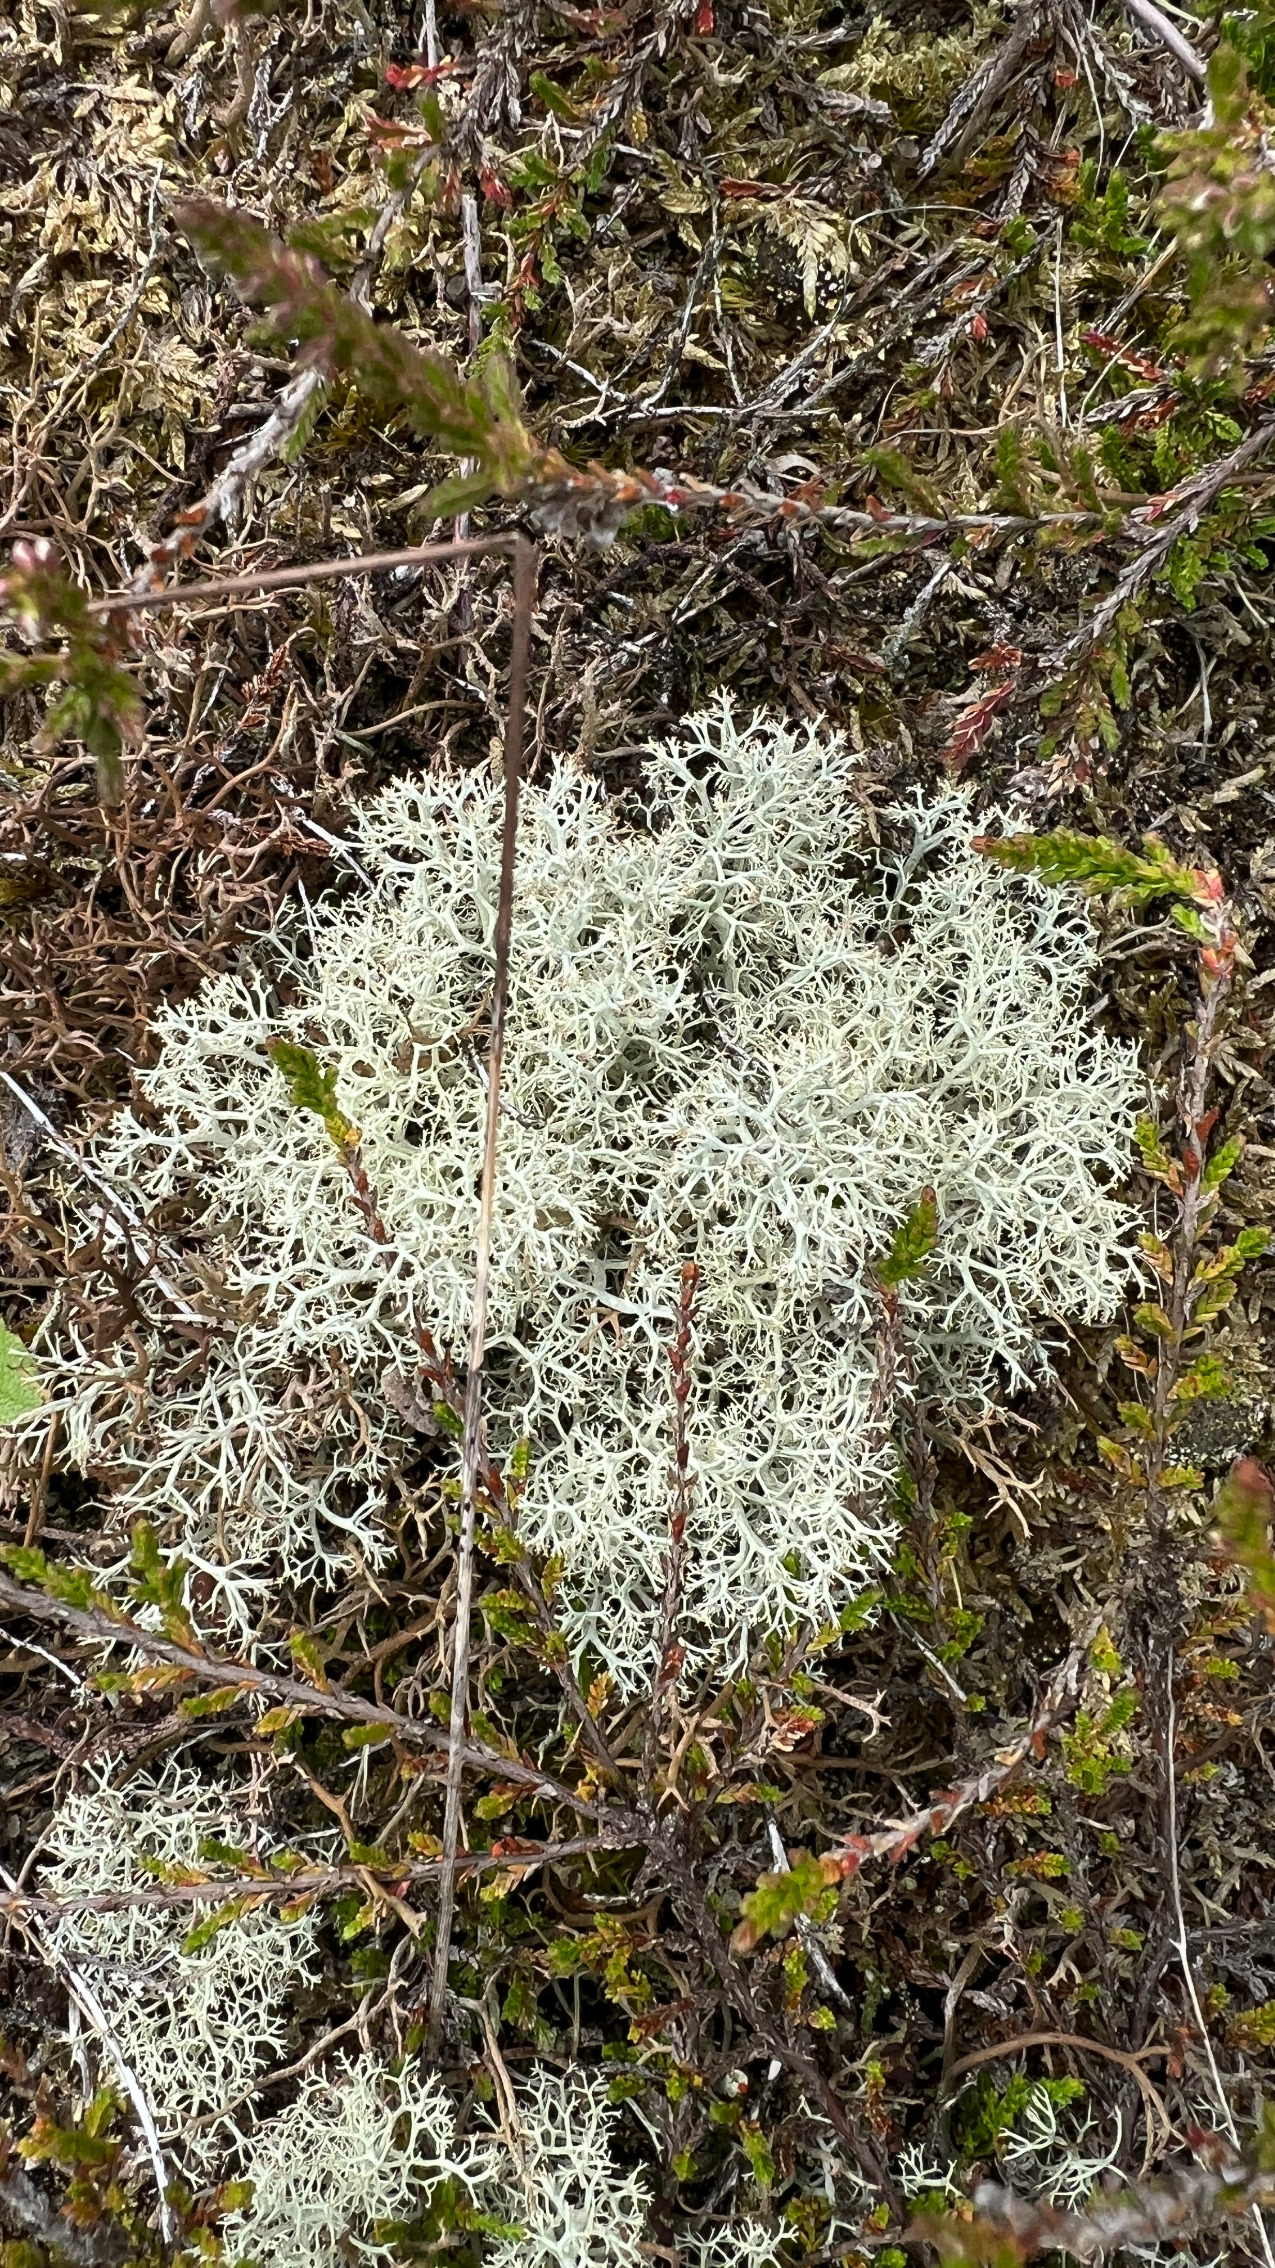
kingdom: Fungi
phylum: Ascomycota
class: Lecanoromycetes
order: Lecanorales
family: Cladoniaceae
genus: Cladonia
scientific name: Cladonia portentosa
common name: Hede-rensdyrlav
